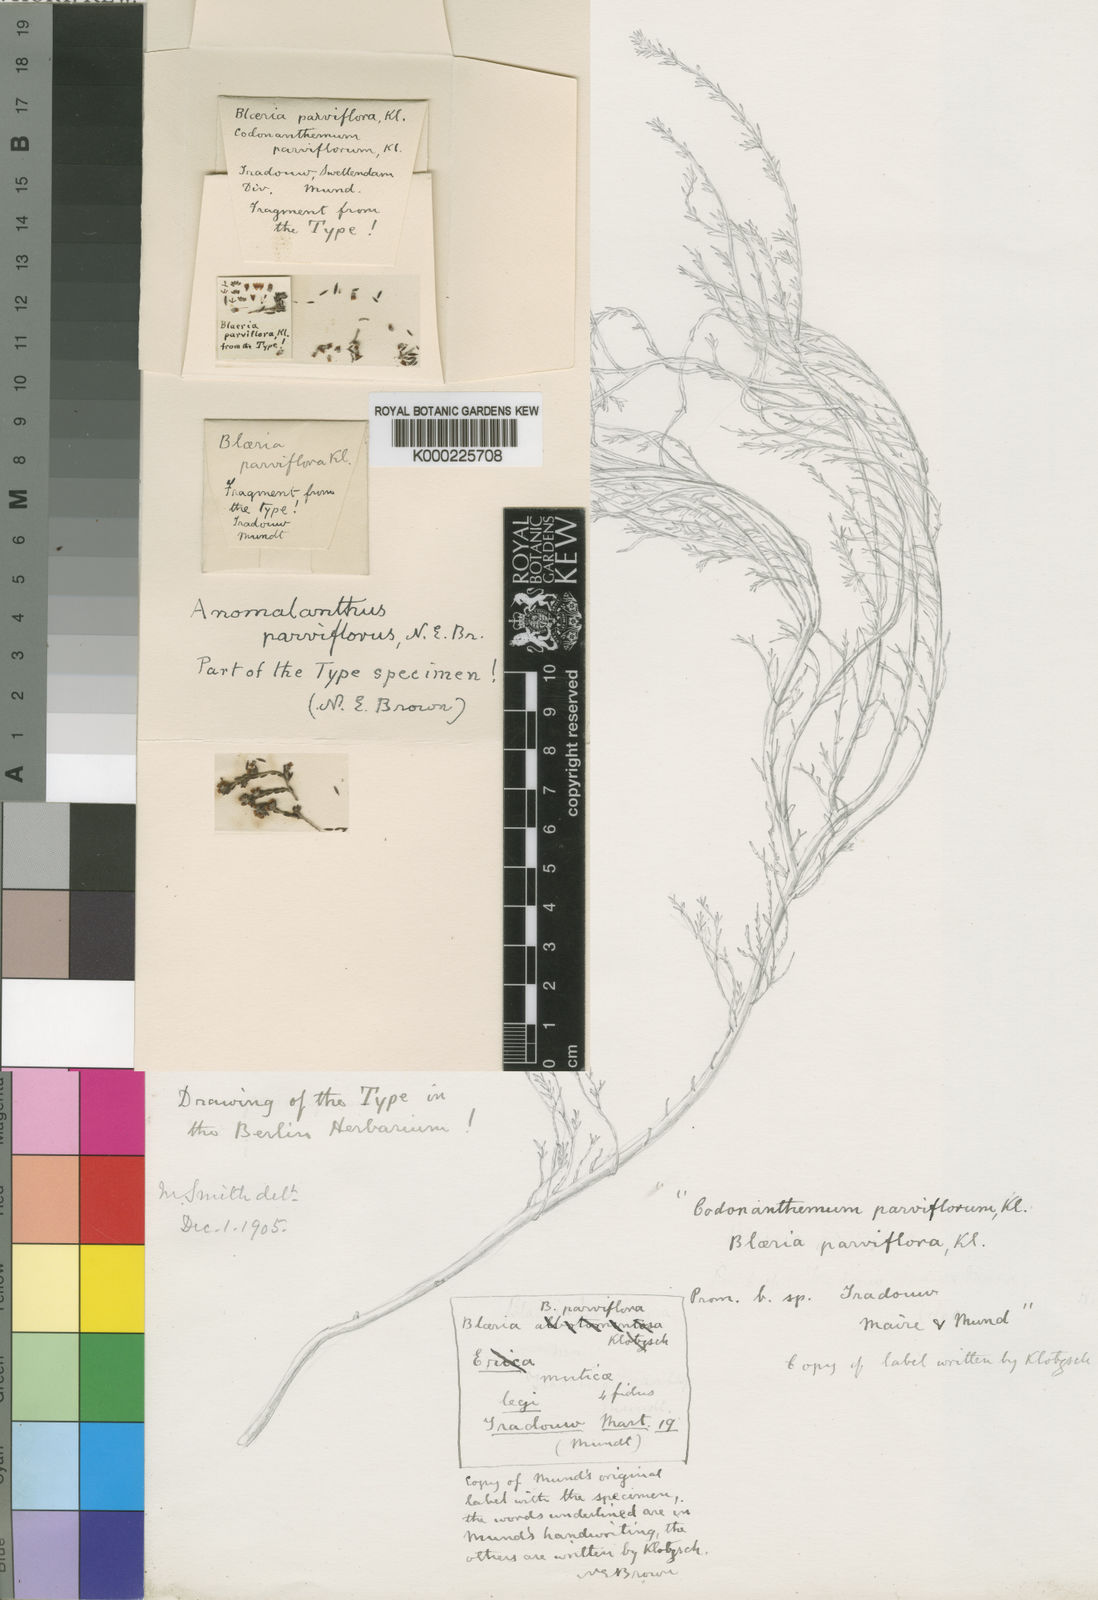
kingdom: Plantae
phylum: Tracheophyta
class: Magnoliopsida
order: Ericales
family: Ericaceae
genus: Erica
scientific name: Erica anguliger
